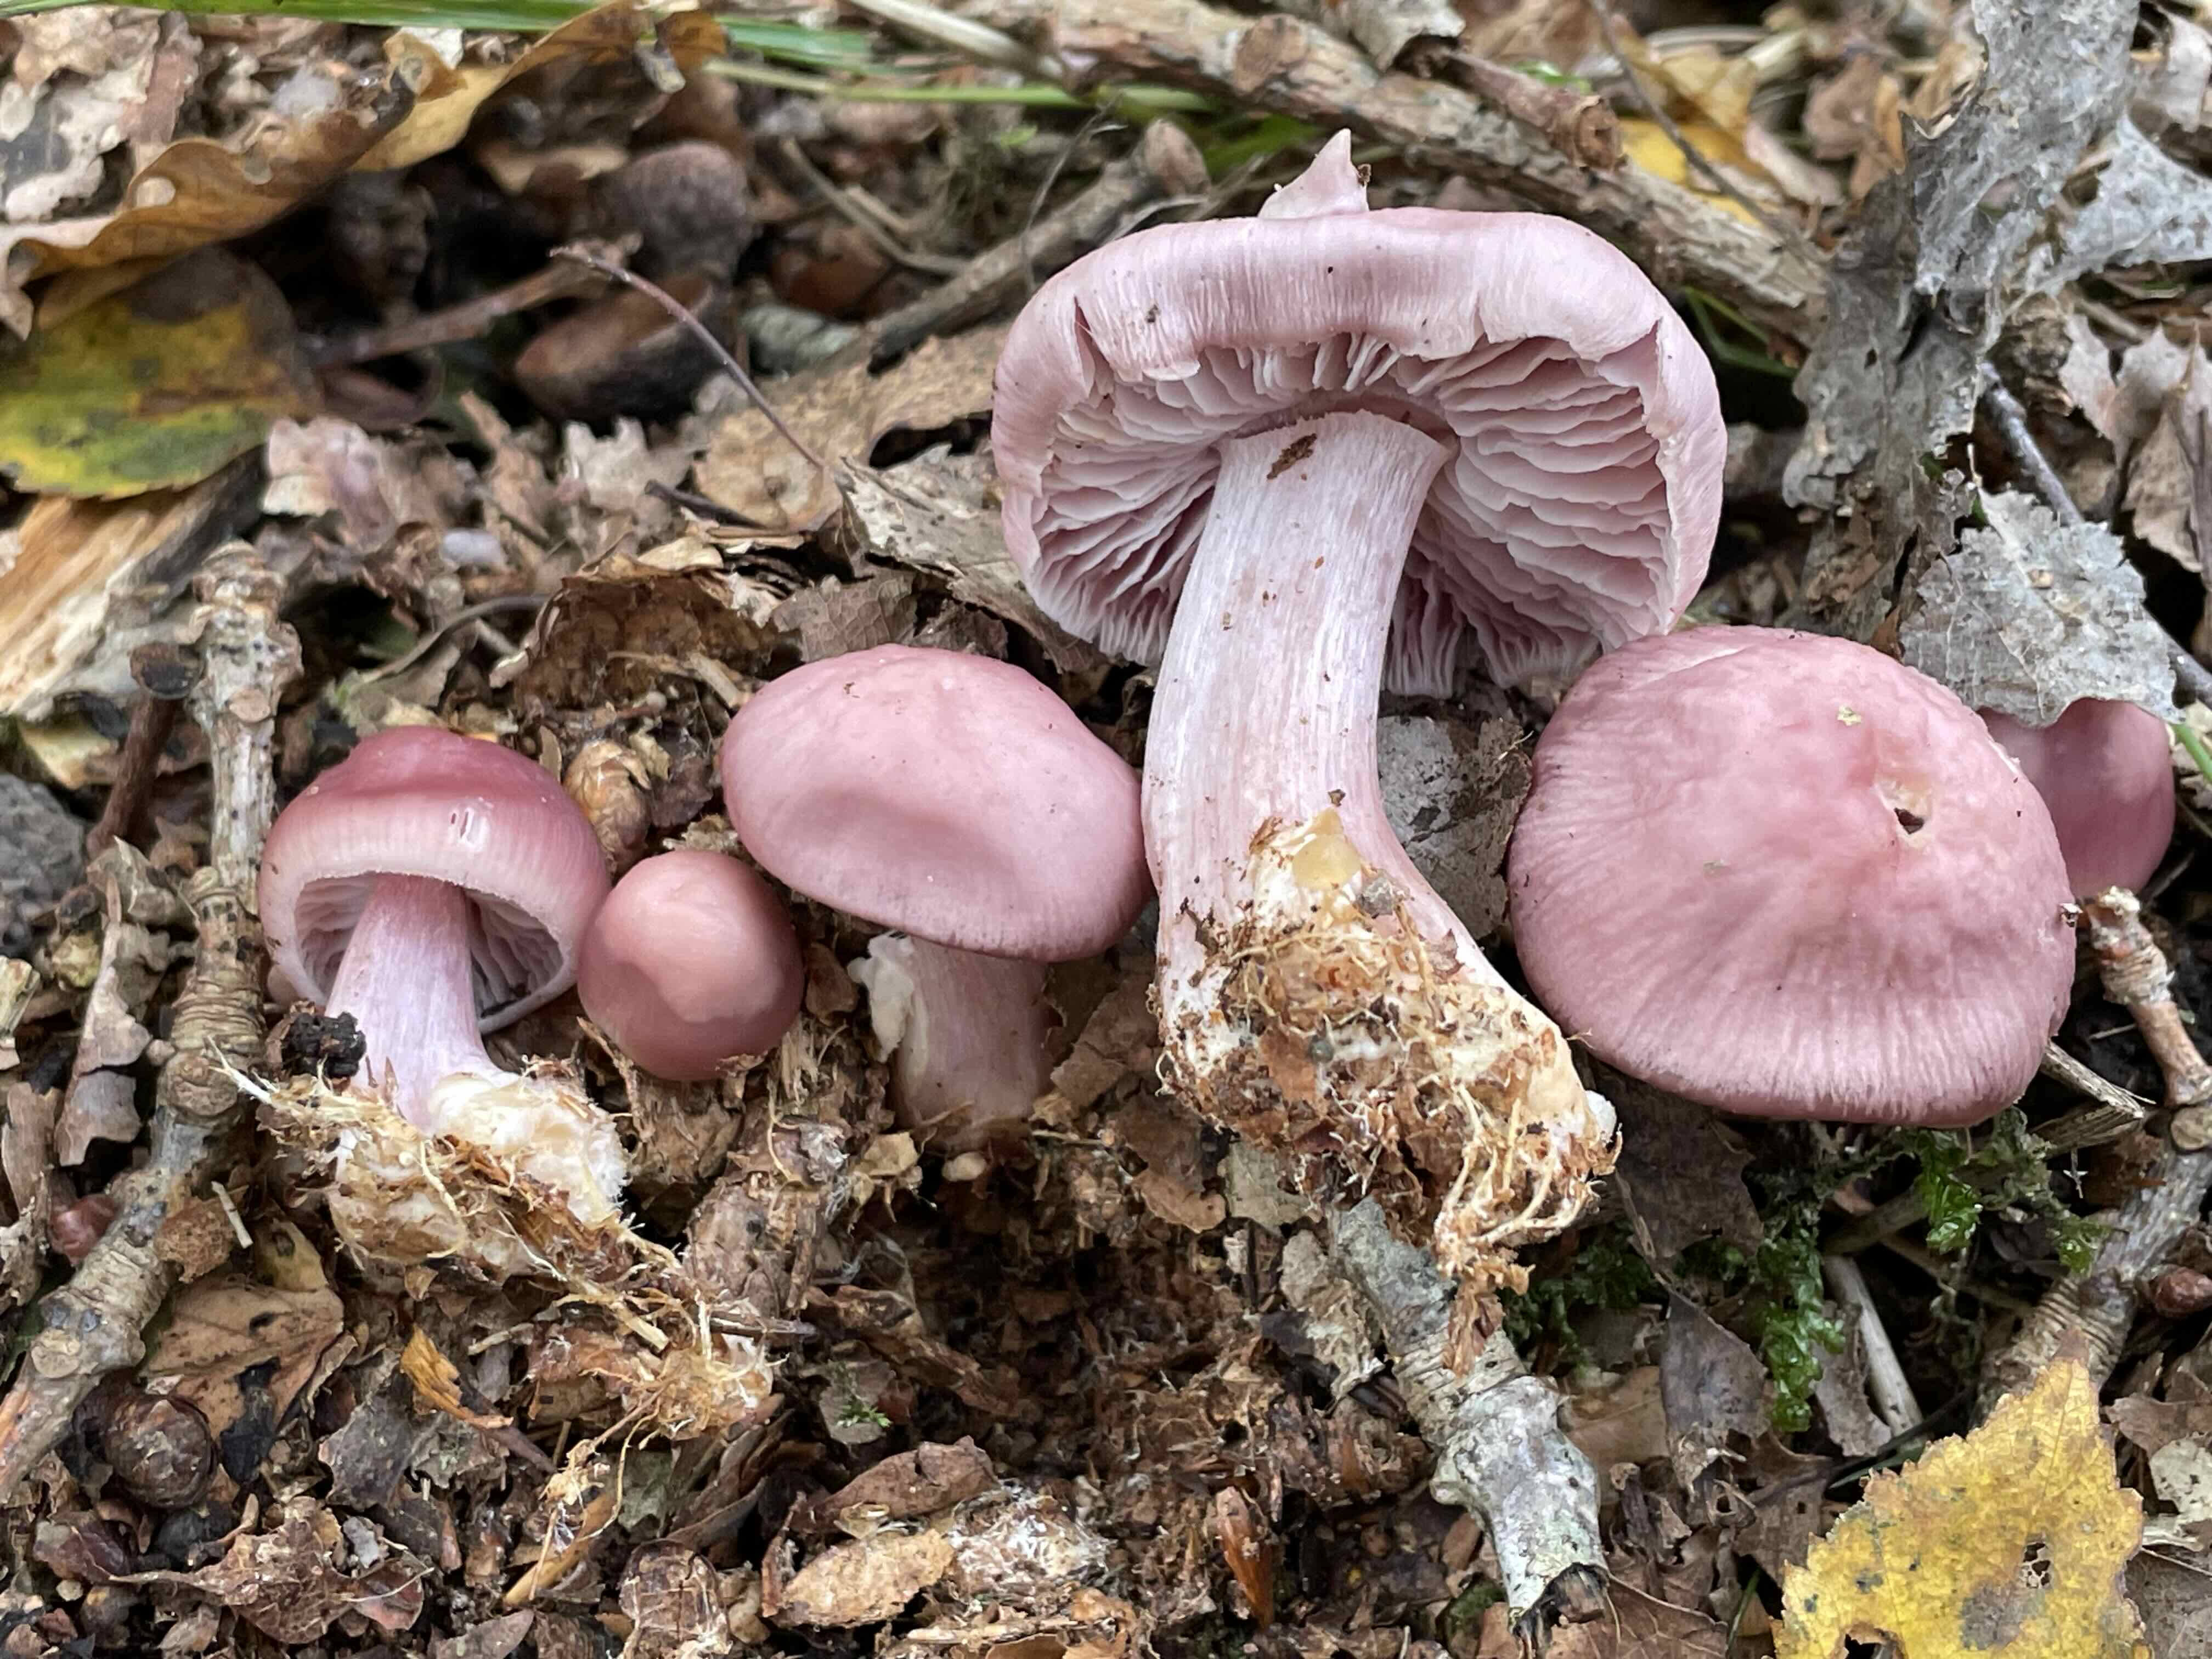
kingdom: Fungi
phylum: Basidiomycota
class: Agaricomycetes
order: Agaricales
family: Mycenaceae
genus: Mycena
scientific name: Mycena rosea
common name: rosa huesvamp
